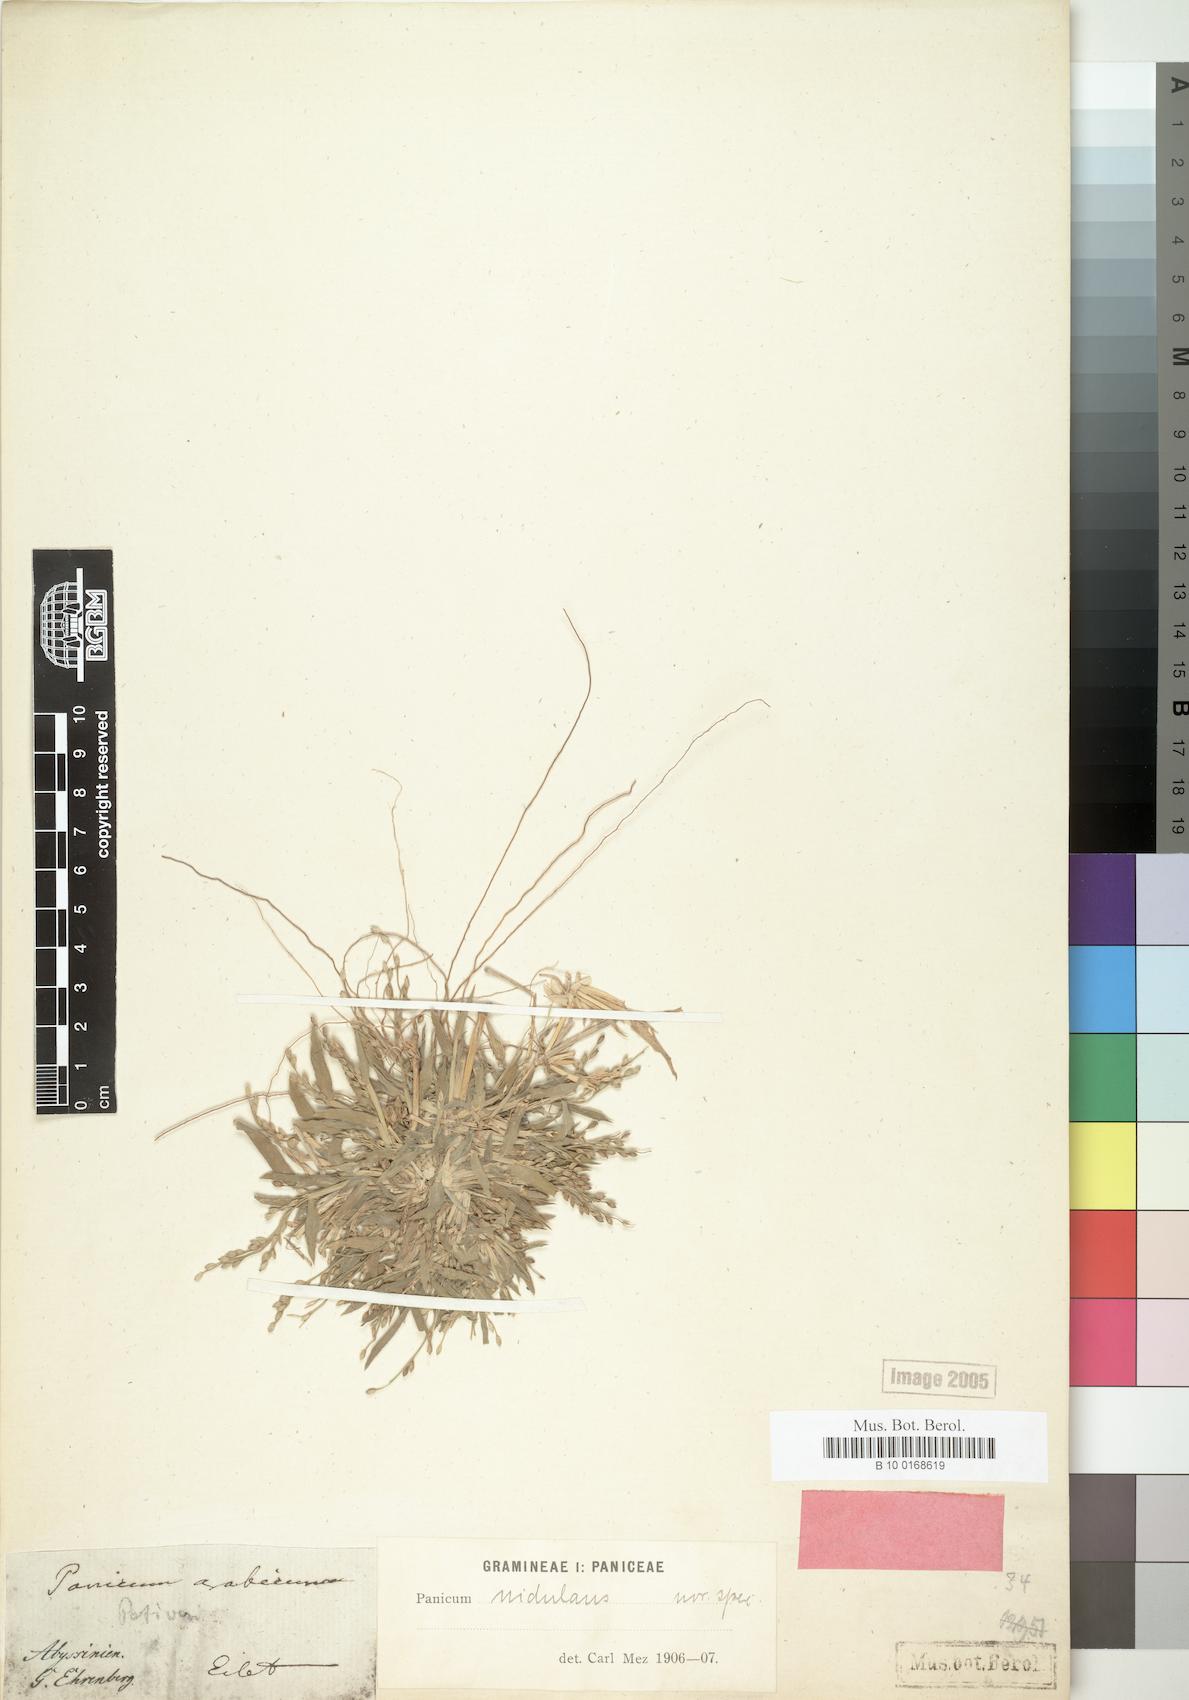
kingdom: Plantae
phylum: Tracheophyta
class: Liliopsida
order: Poales
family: Poaceae
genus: Urochloa
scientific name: Urochloa ramosa
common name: Browntop millet
